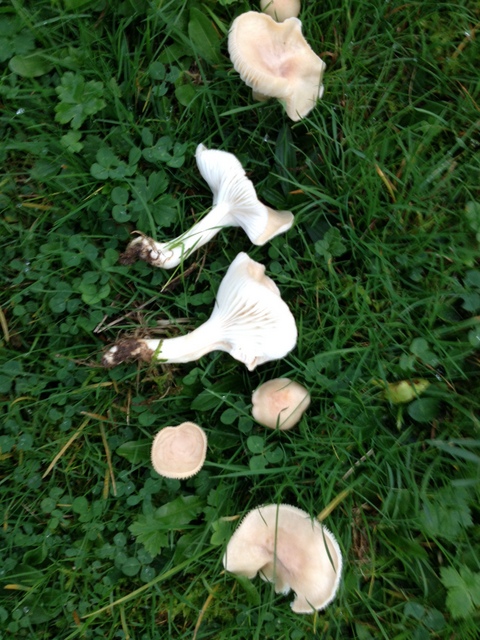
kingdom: Fungi
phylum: Basidiomycota
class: Agaricomycetes
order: Agaricales
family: Hygrophoraceae
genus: Cuphophyllus
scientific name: Cuphophyllus
